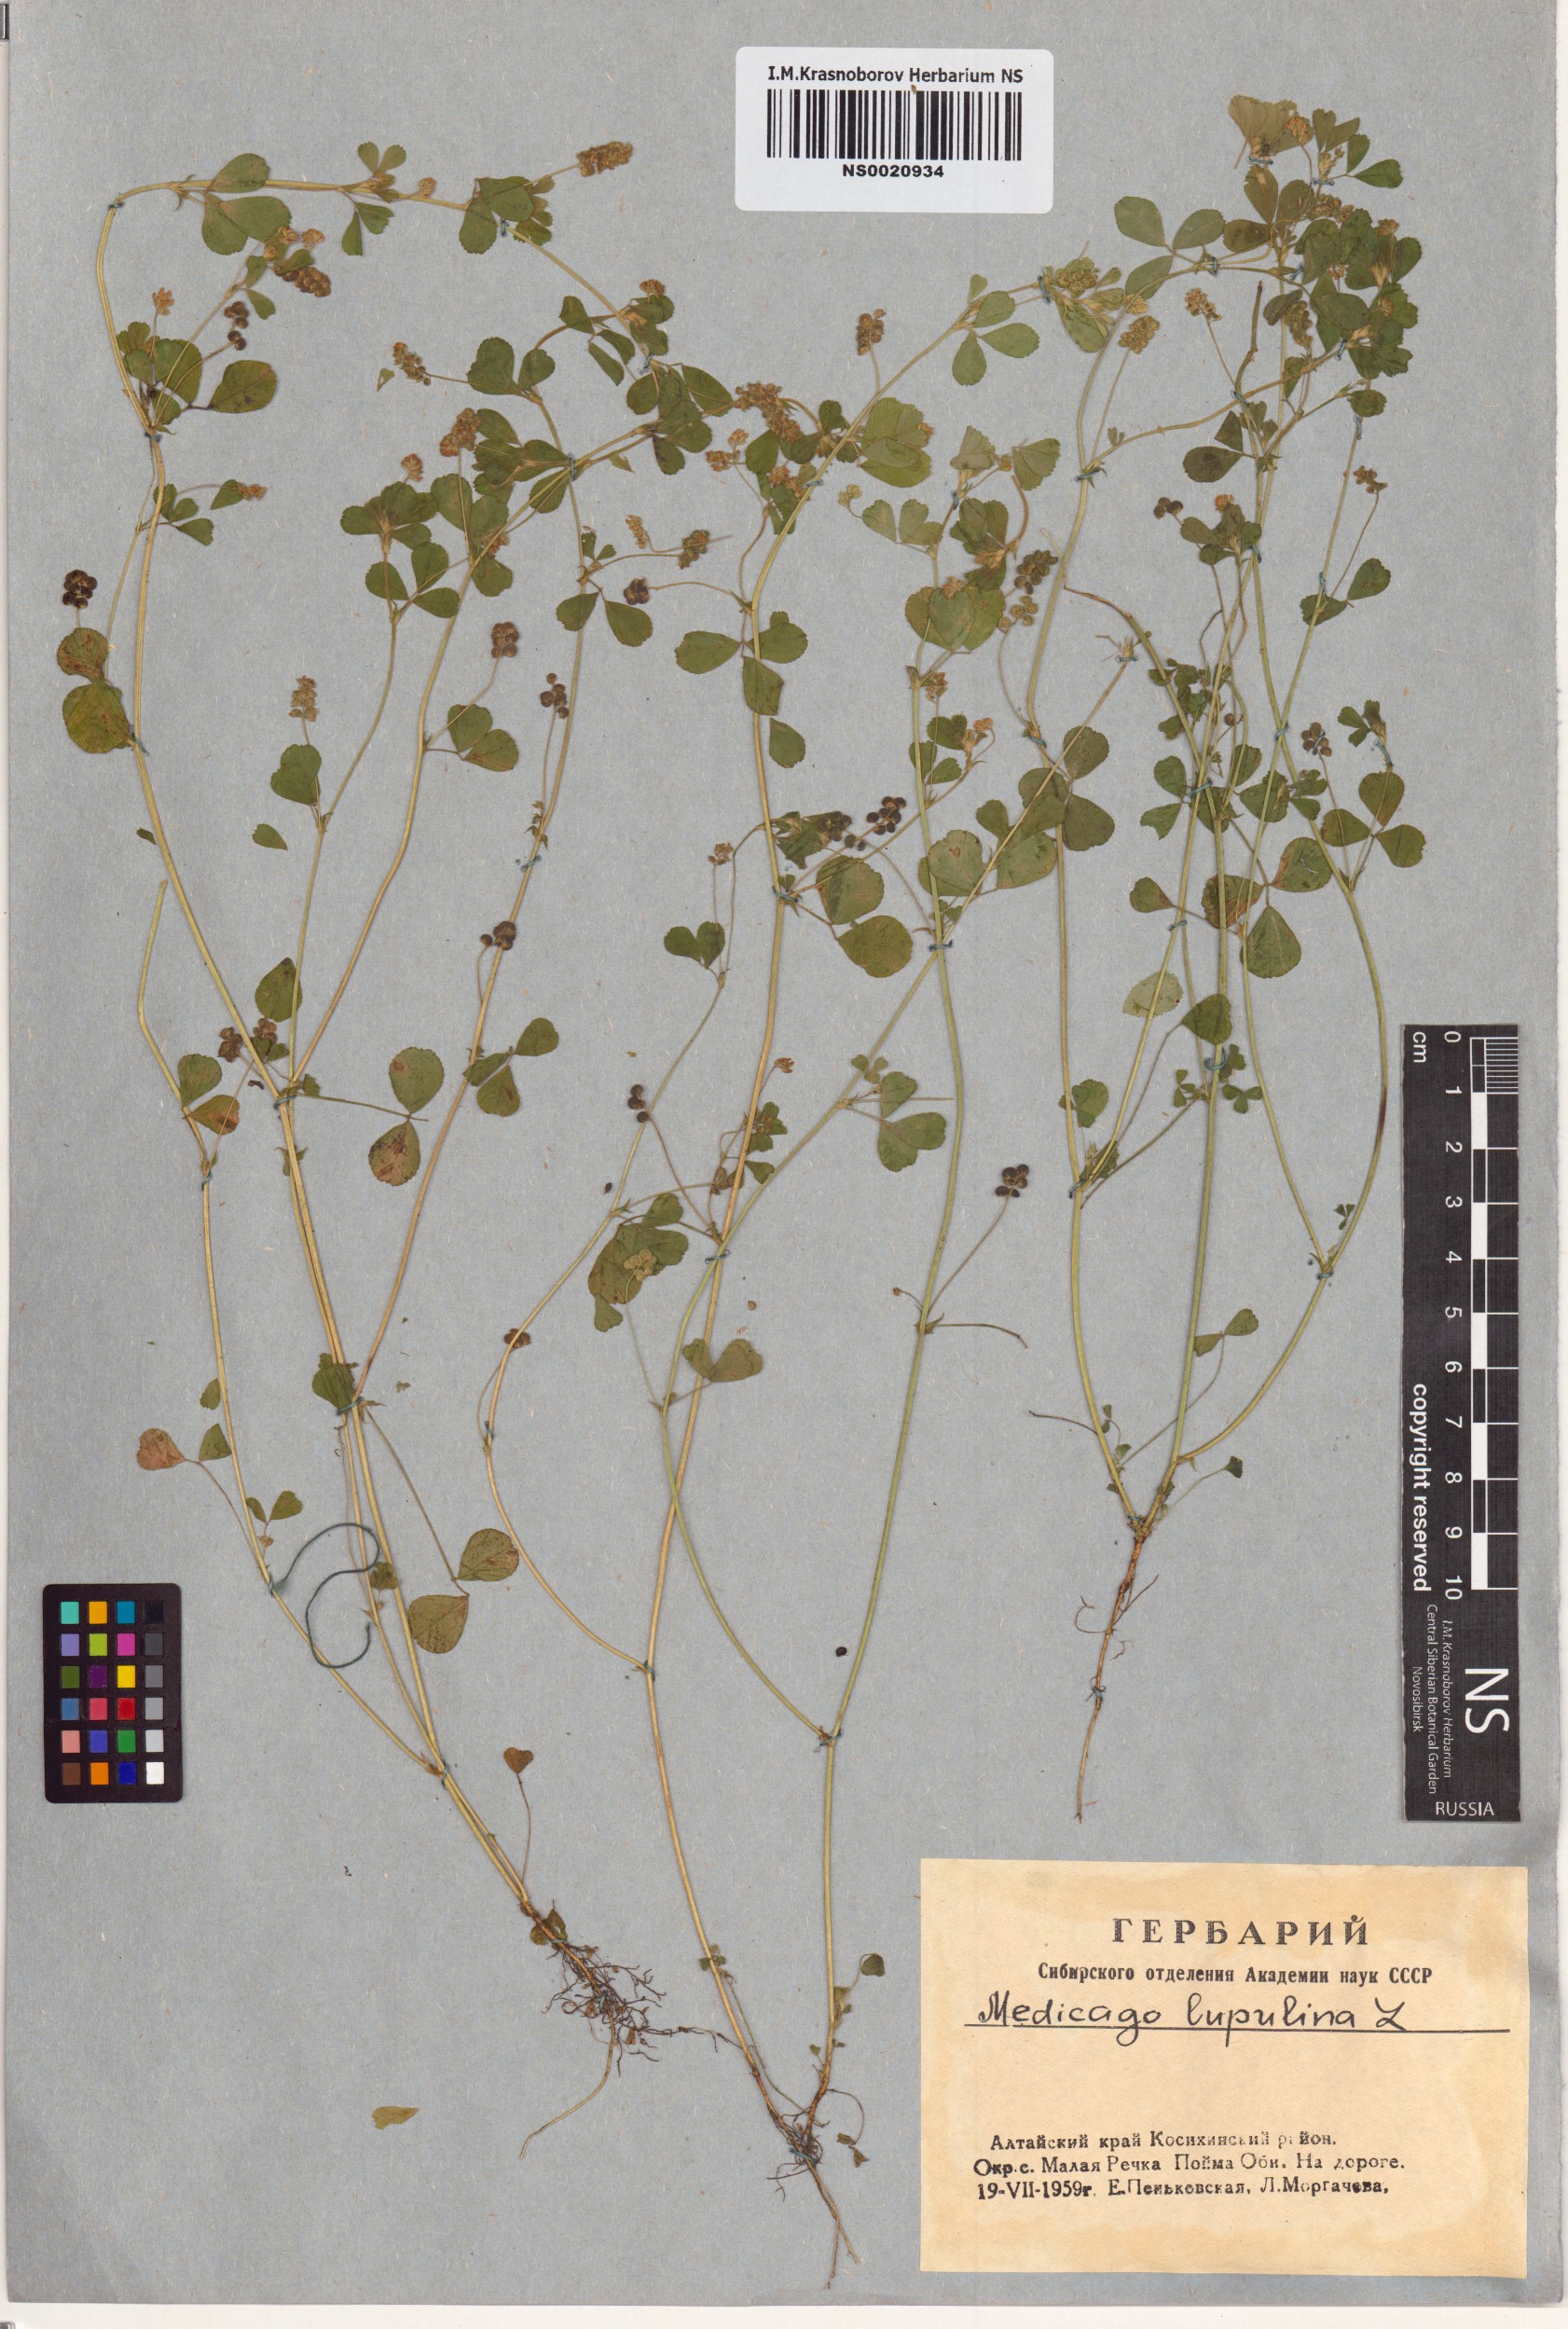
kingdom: Plantae
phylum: Tracheophyta
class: Magnoliopsida
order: Fabales
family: Fabaceae
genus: Medicago
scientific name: Medicago lupulina
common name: Black medick
